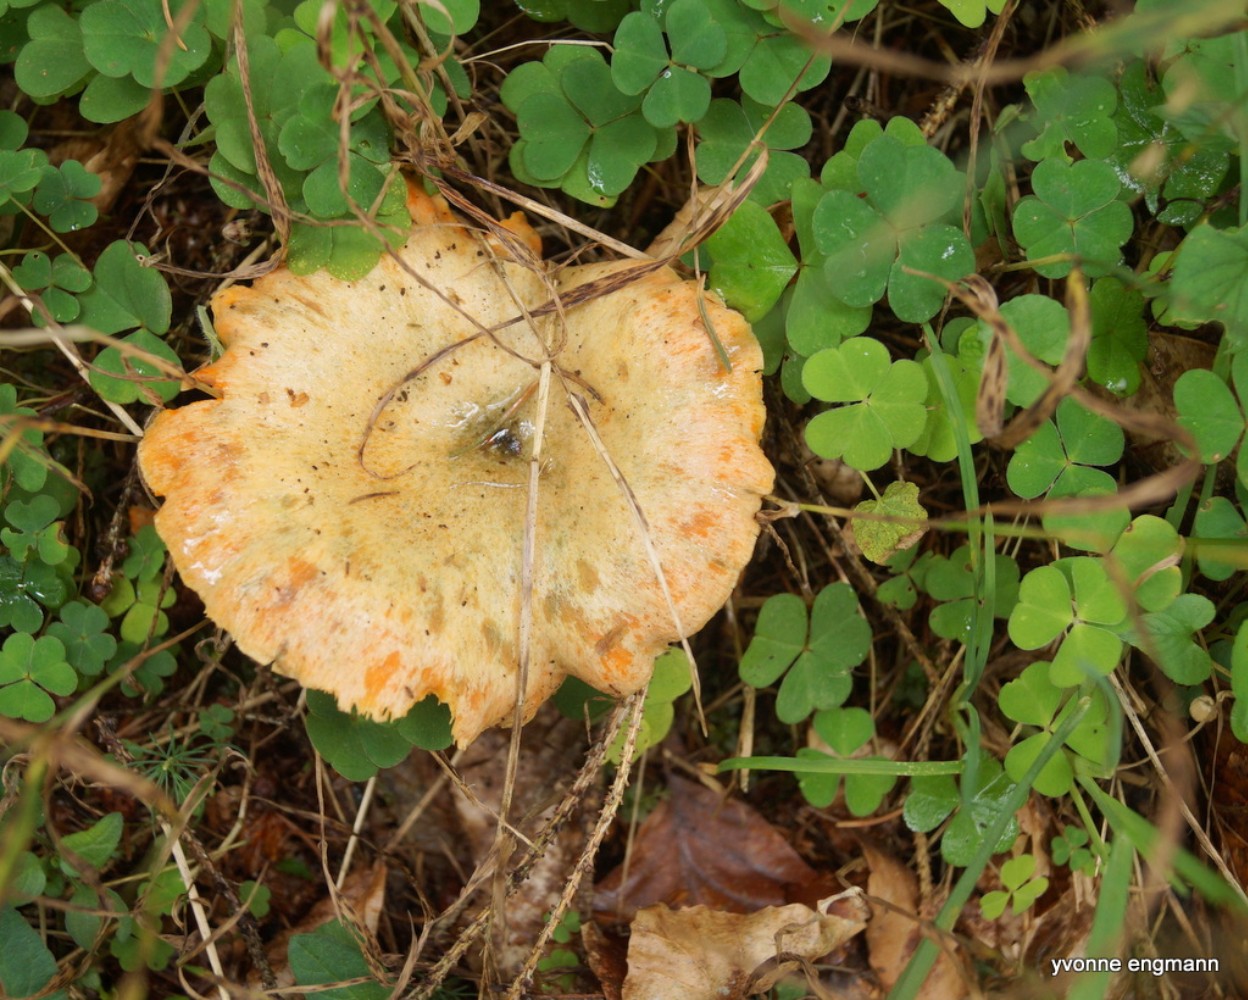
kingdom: Fungi
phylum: Basidiomycota
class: Agaricomycetes
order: Russulales
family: Russulaceae
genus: Lactarius
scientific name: Lactarius deterrimus
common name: gran-mælkehat
